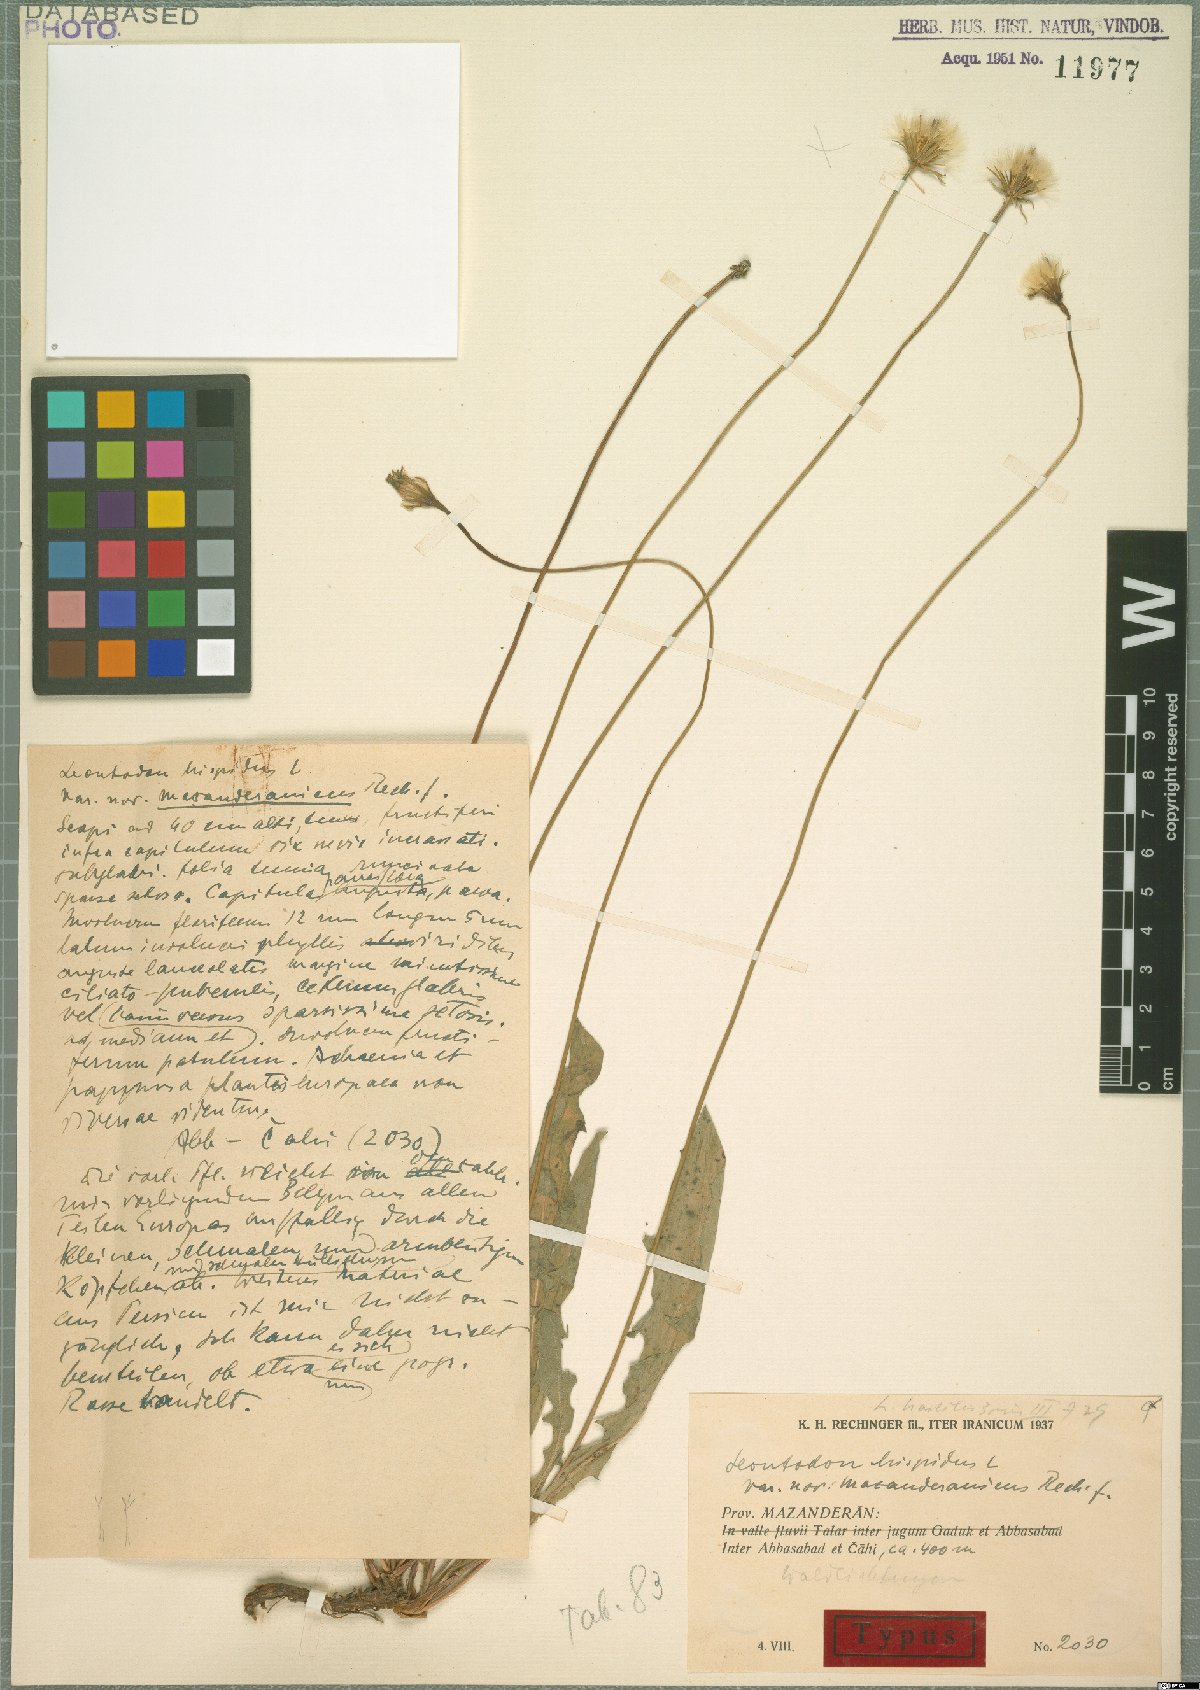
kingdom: Plantae
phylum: Tracheophyta
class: Magnoliopsida
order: Asterales
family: Asteraceae
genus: Leontodon
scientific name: Leontodon hispidus
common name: Rough hawkbit
